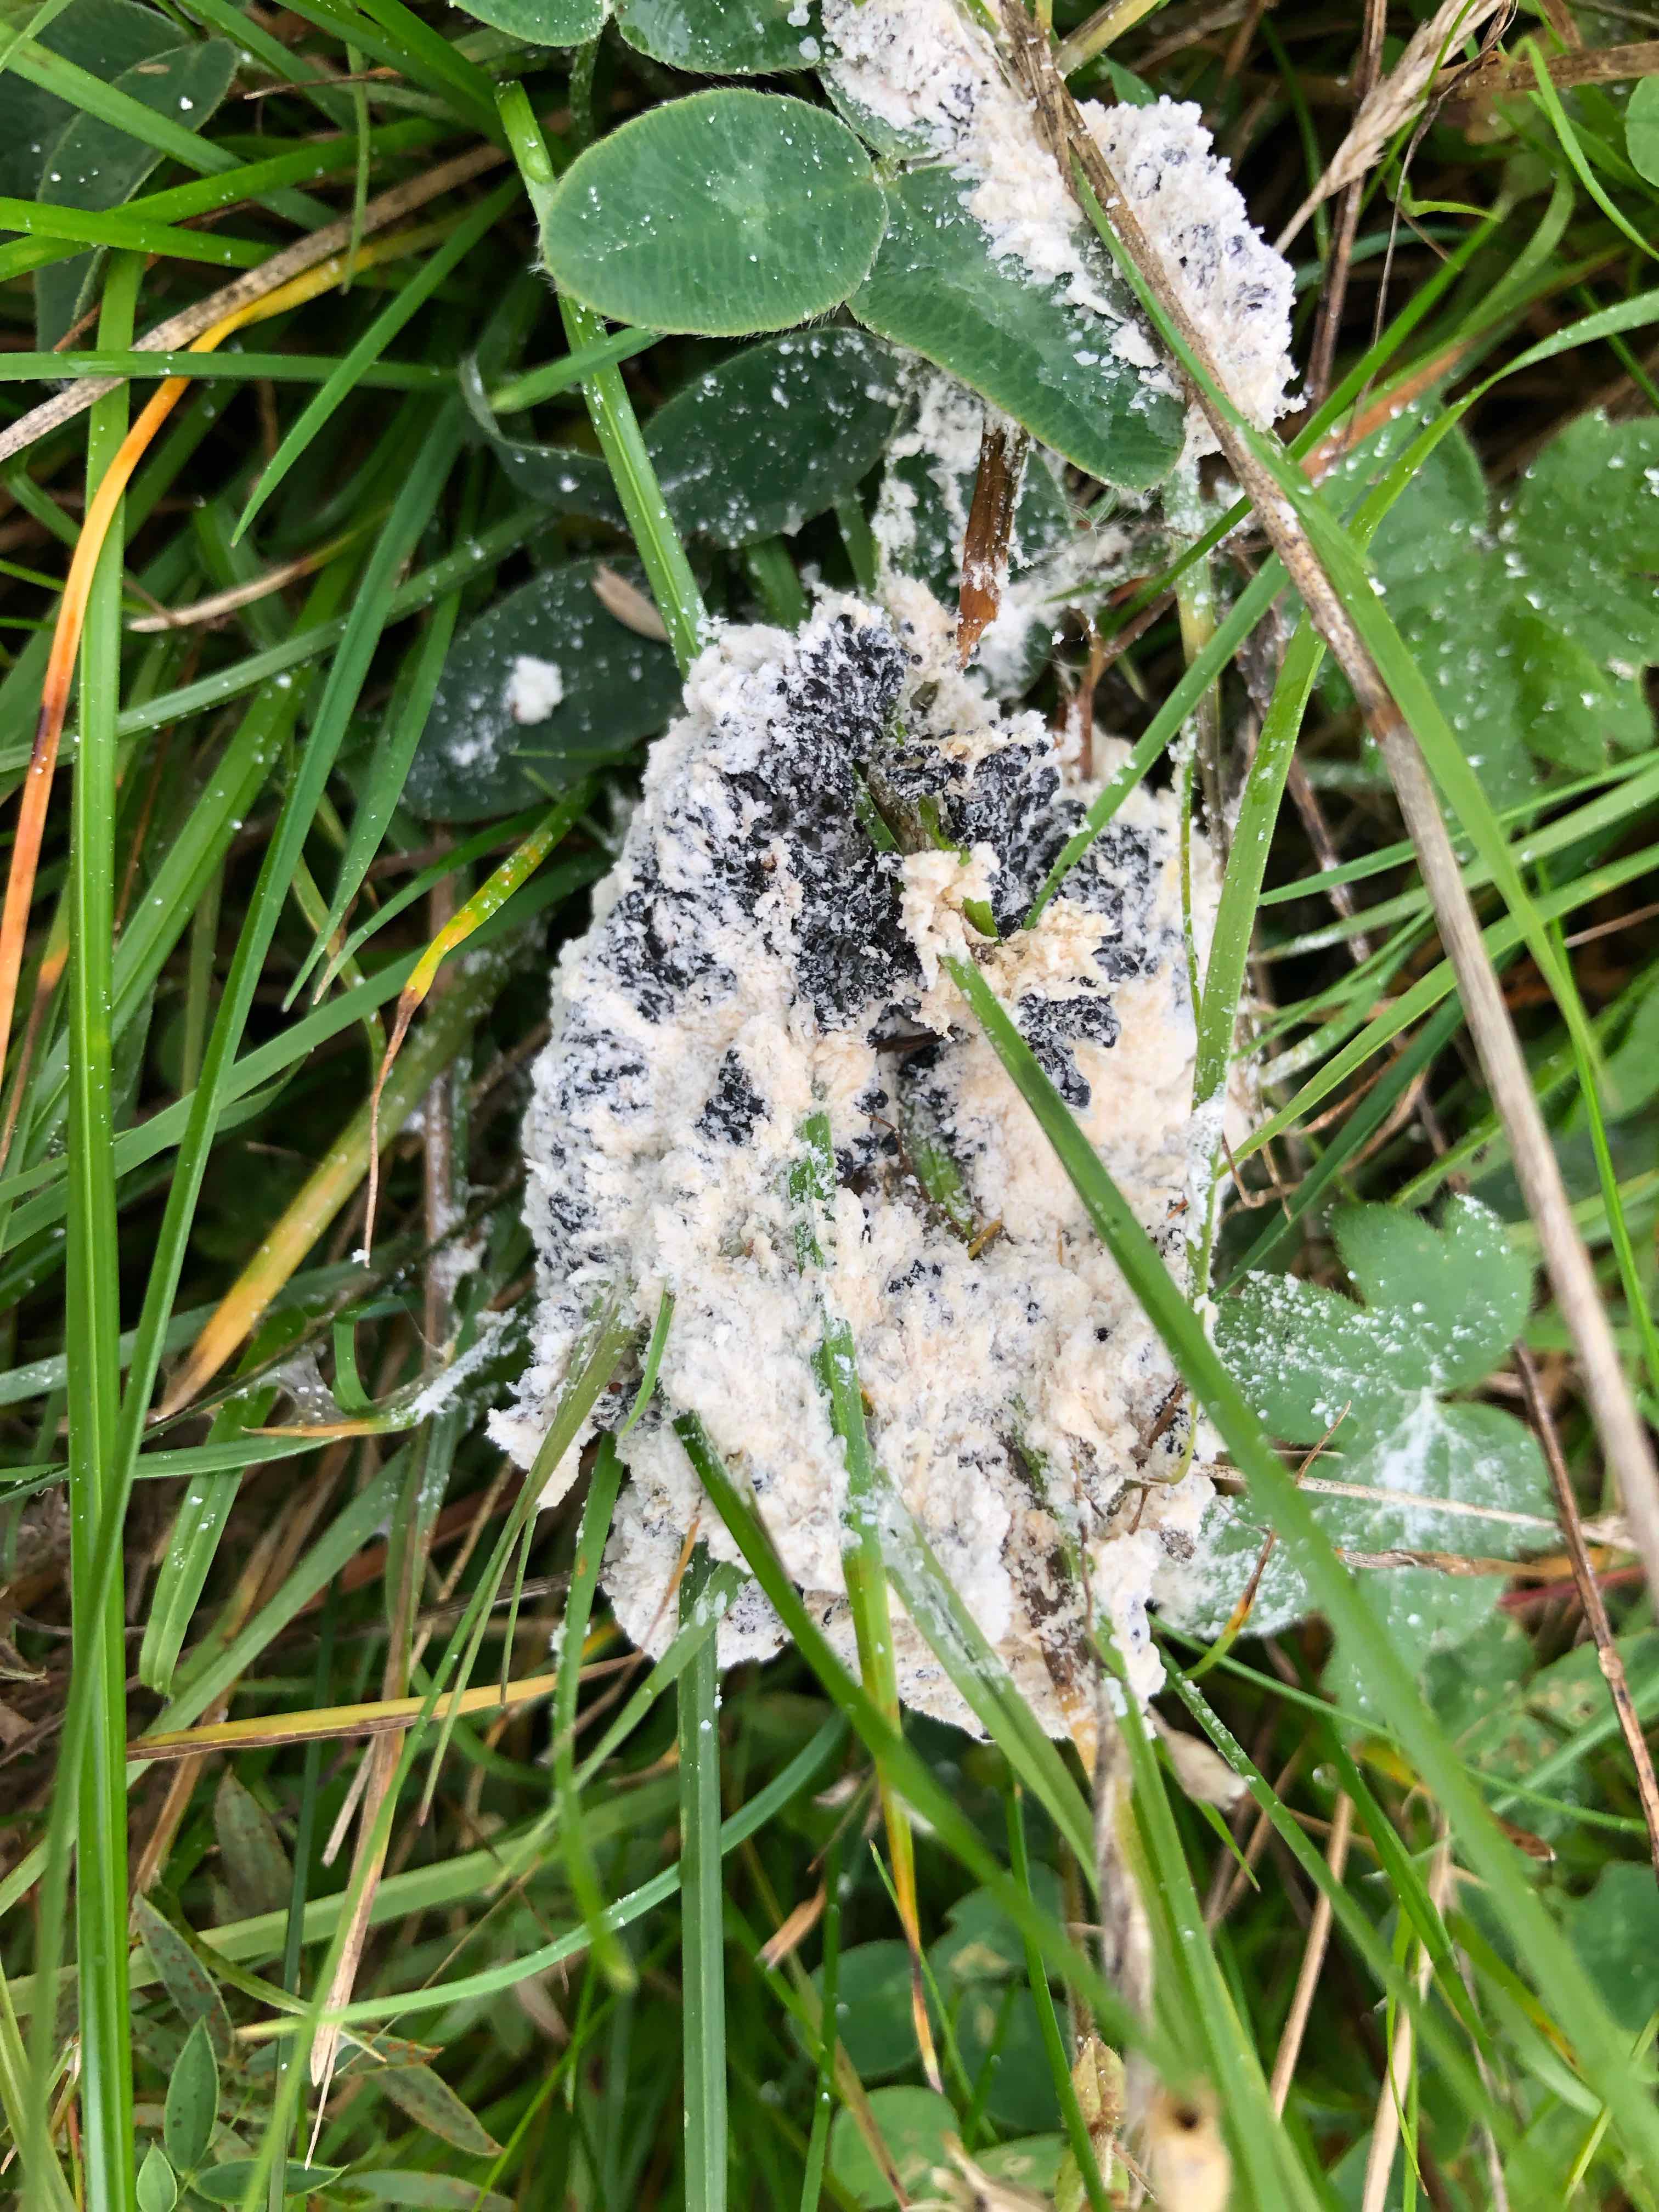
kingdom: Protozoa
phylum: Mycetozoa
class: Myxomycetes
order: Physarales
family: Physaraceae
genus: Didymium
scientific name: Didymium
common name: urteskum
